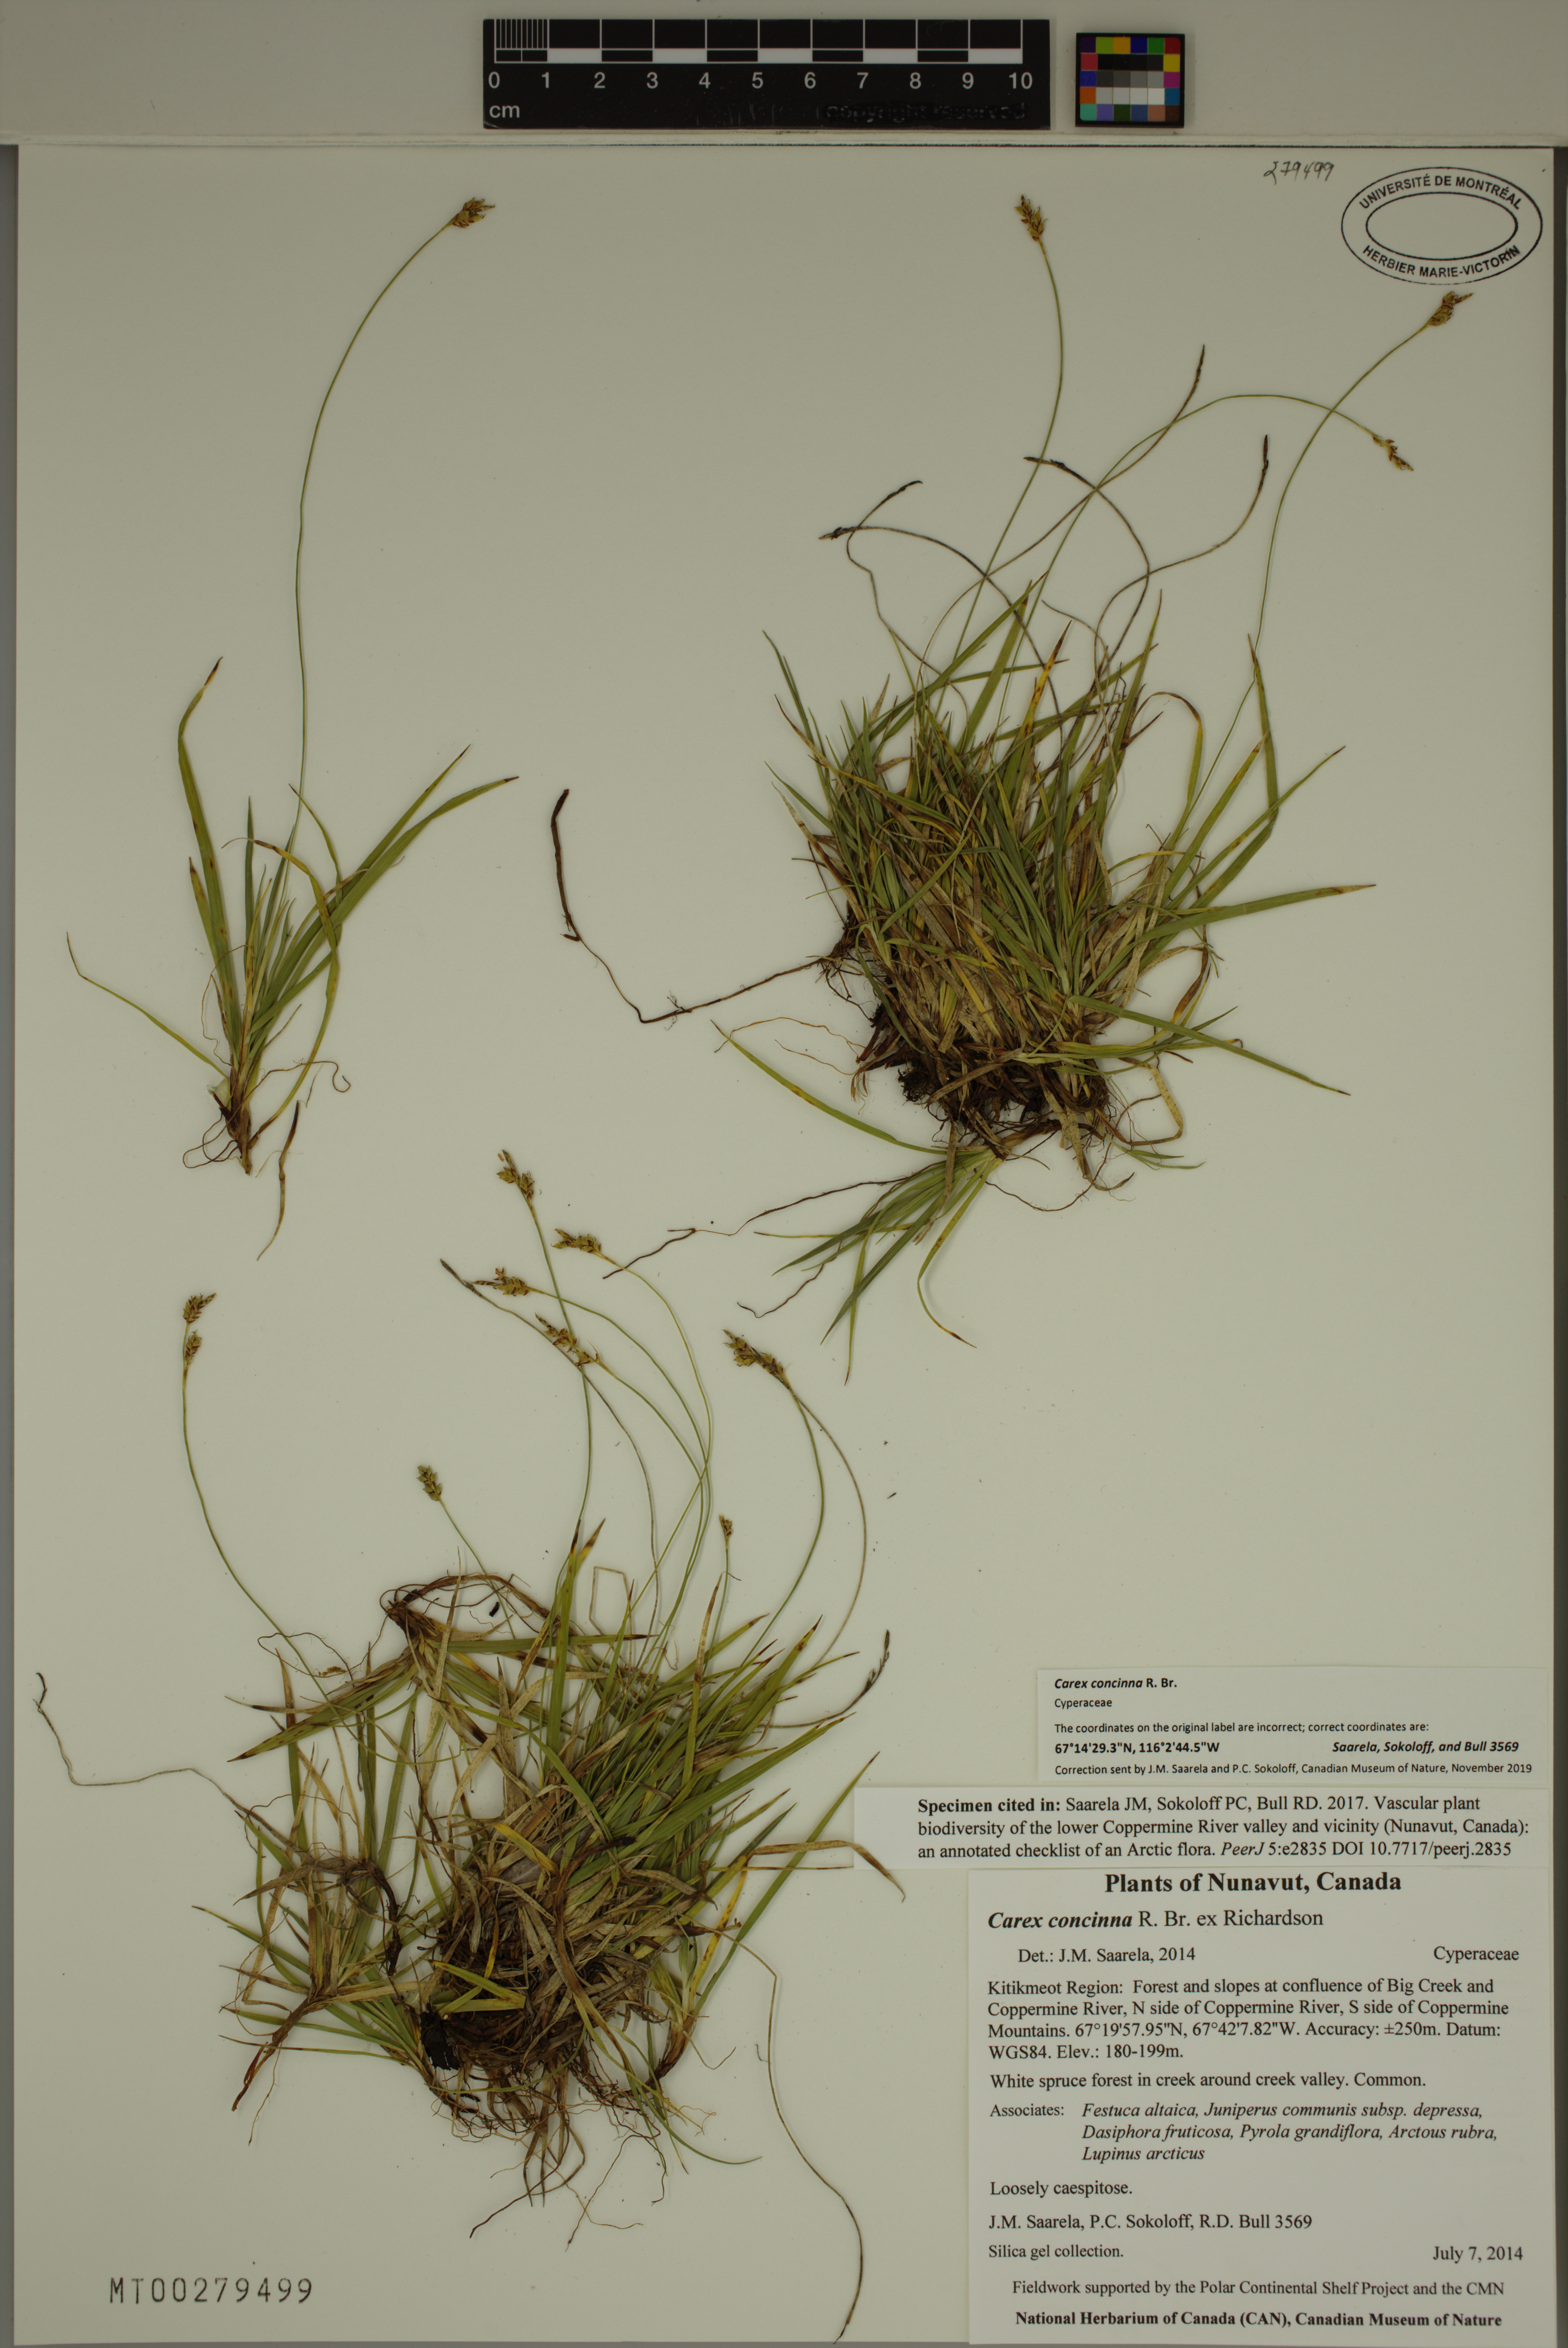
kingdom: Plantae
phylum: Tracheophyta
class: Liliopsida
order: Poales
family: Cyperaceae
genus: Carex
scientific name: Carex concinna
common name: Beautiful sedge
